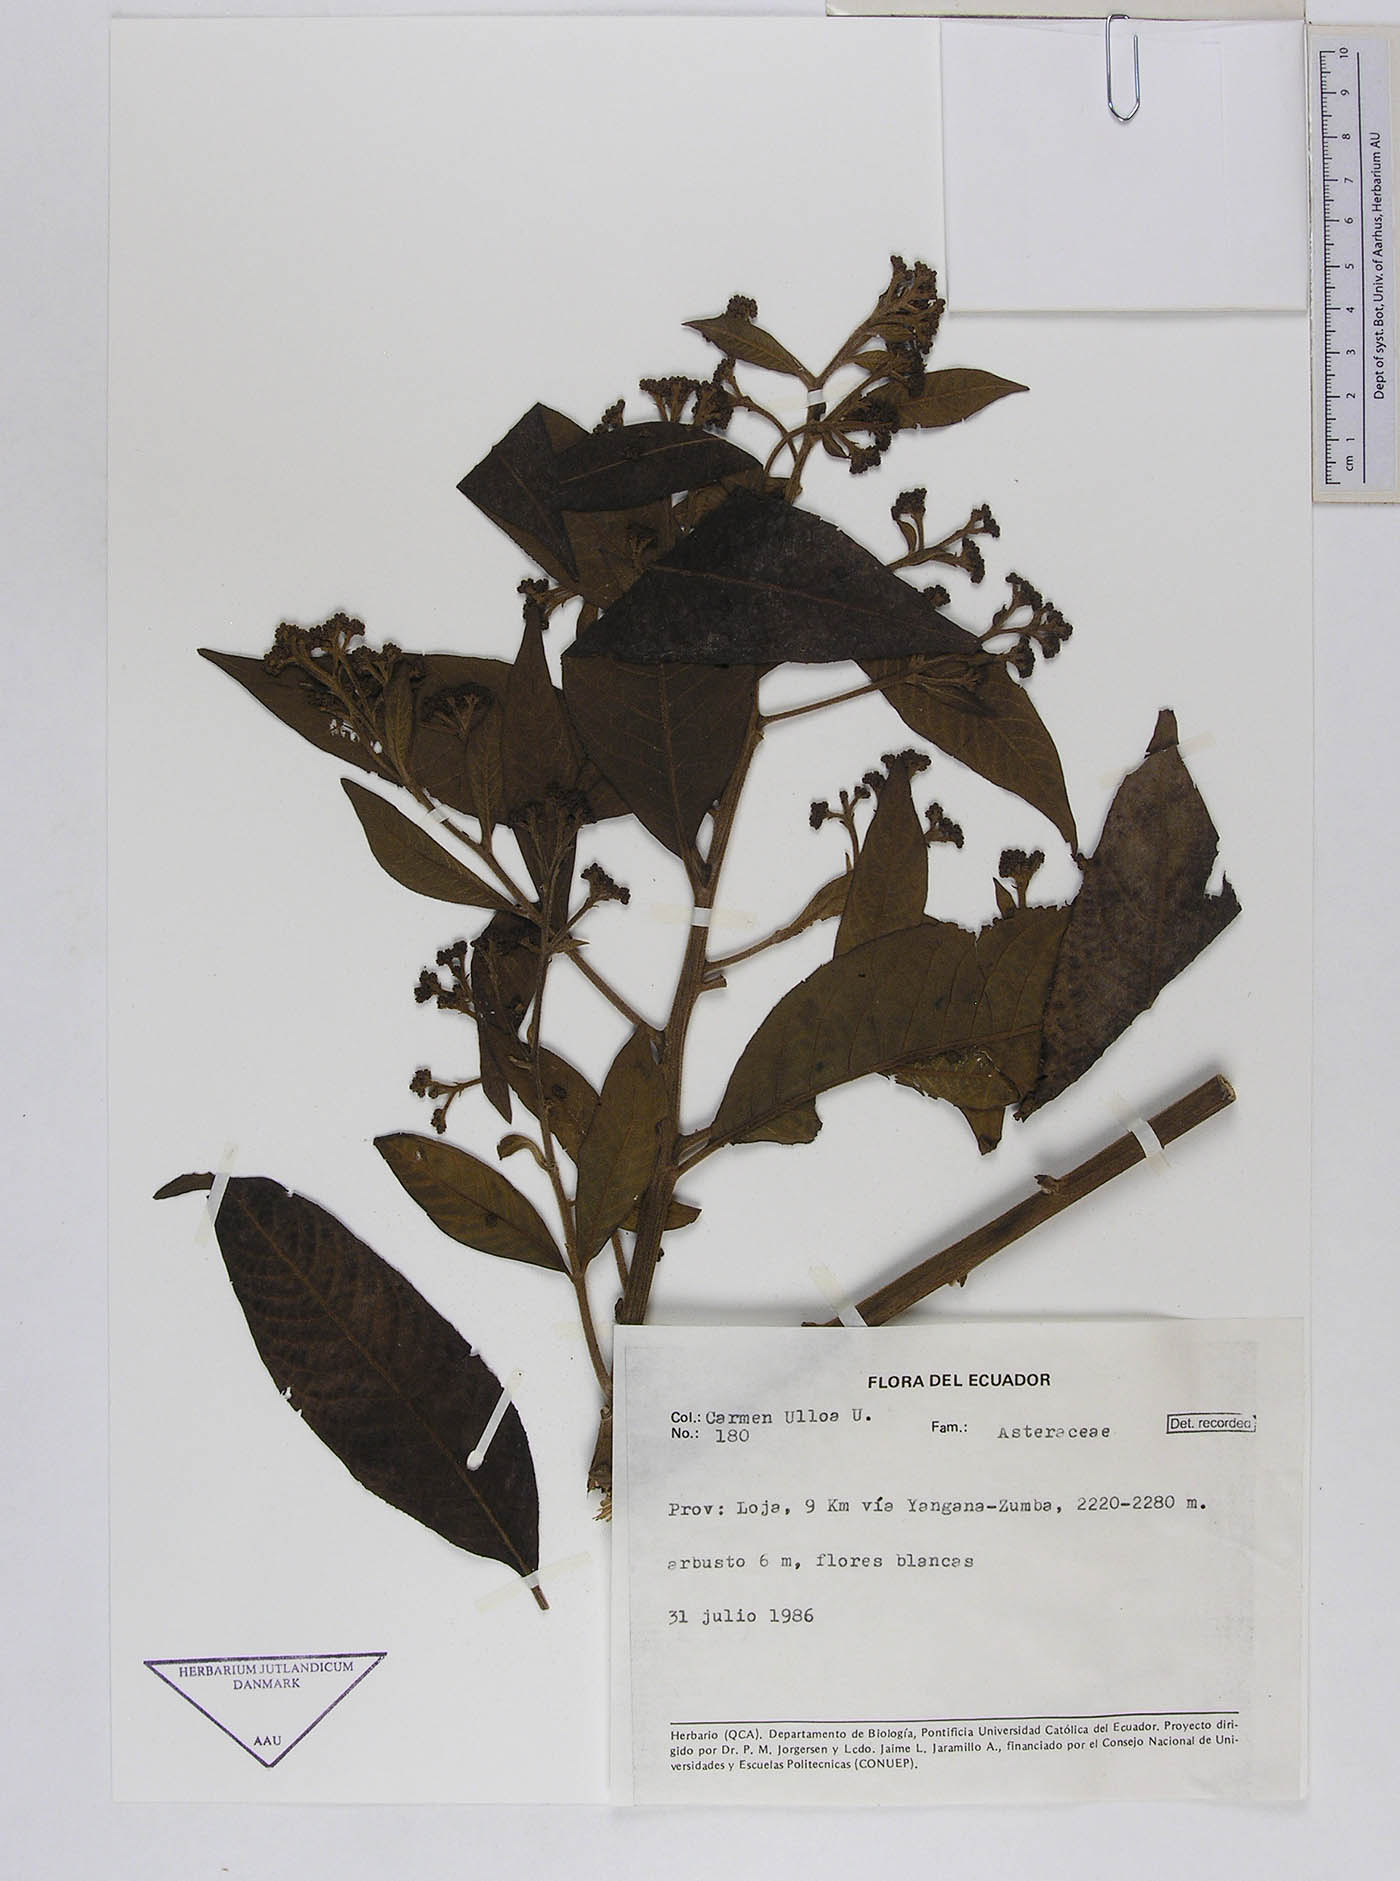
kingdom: Plantae
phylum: Tracheophyta
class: Magnoliopsida
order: Asterales
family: Asteraceae
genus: Vernonanthura
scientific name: Vernonanthura patens
